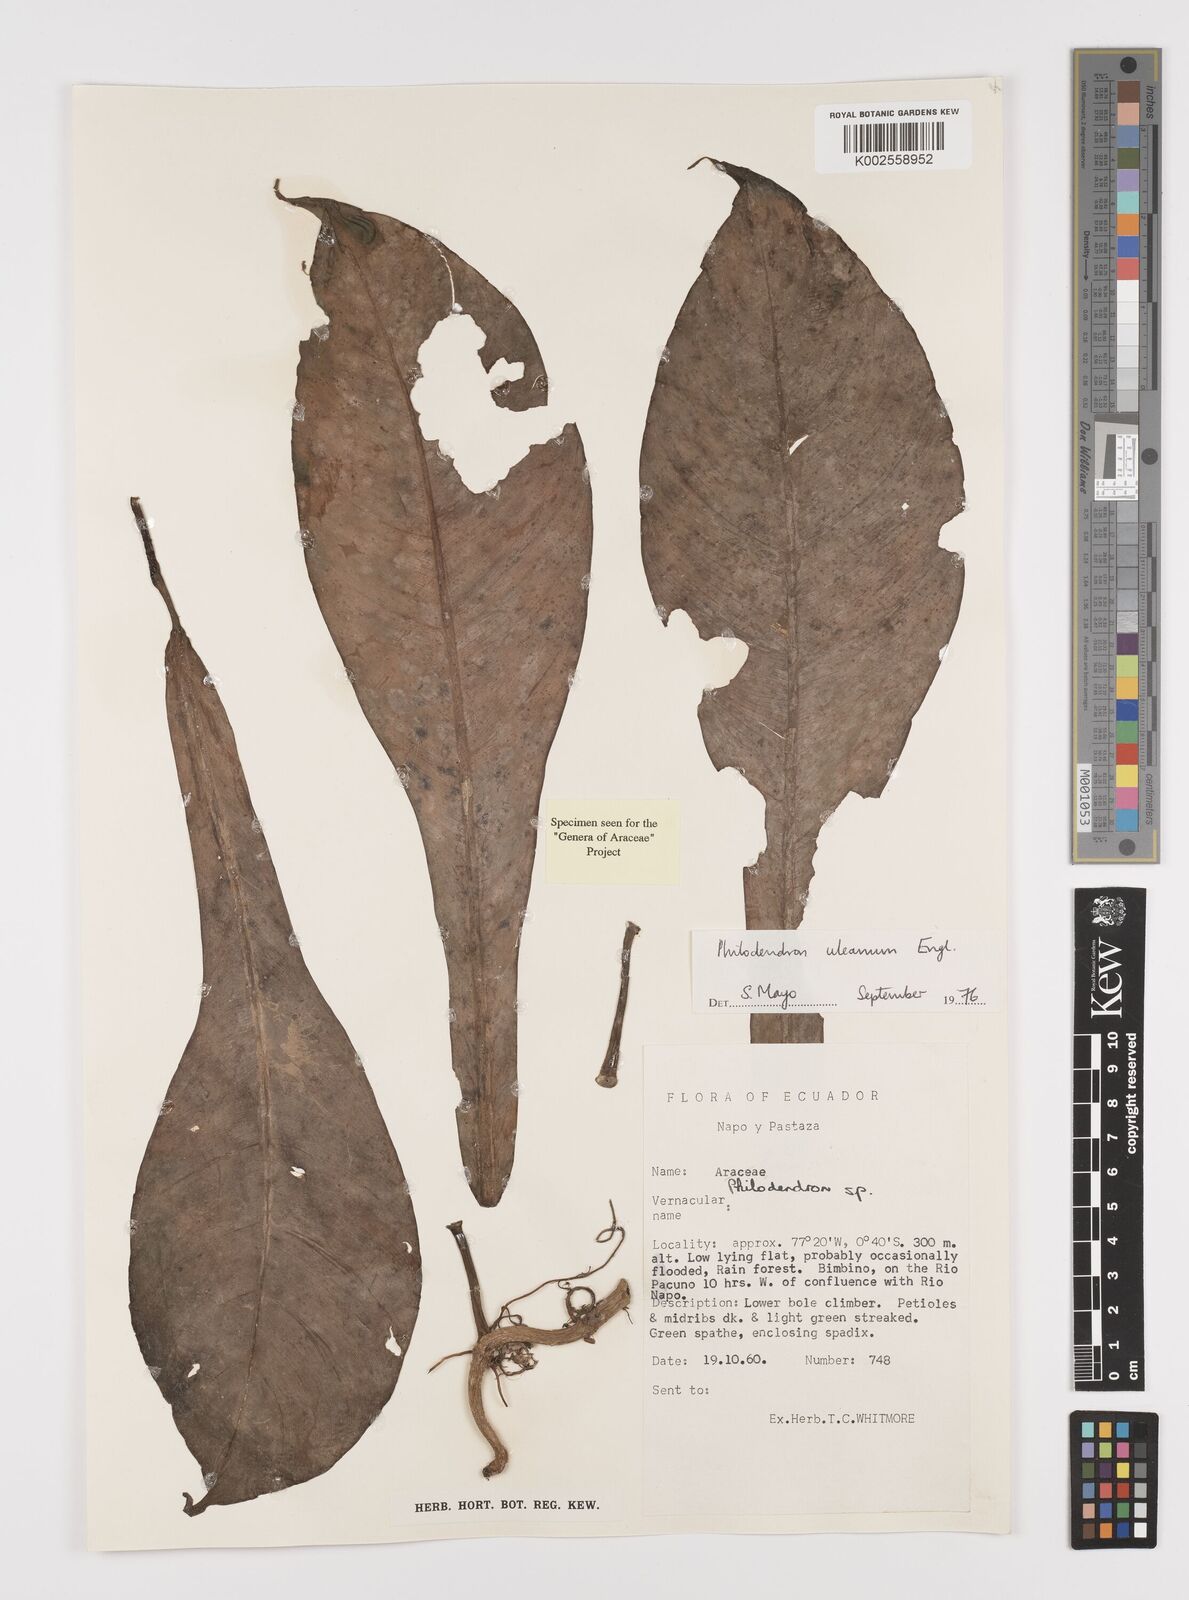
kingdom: Plantae
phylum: Tracheophyta
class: Liliopsida
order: Alismatales
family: Araceae
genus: Philodendron
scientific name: Philodendron heterophyllum
